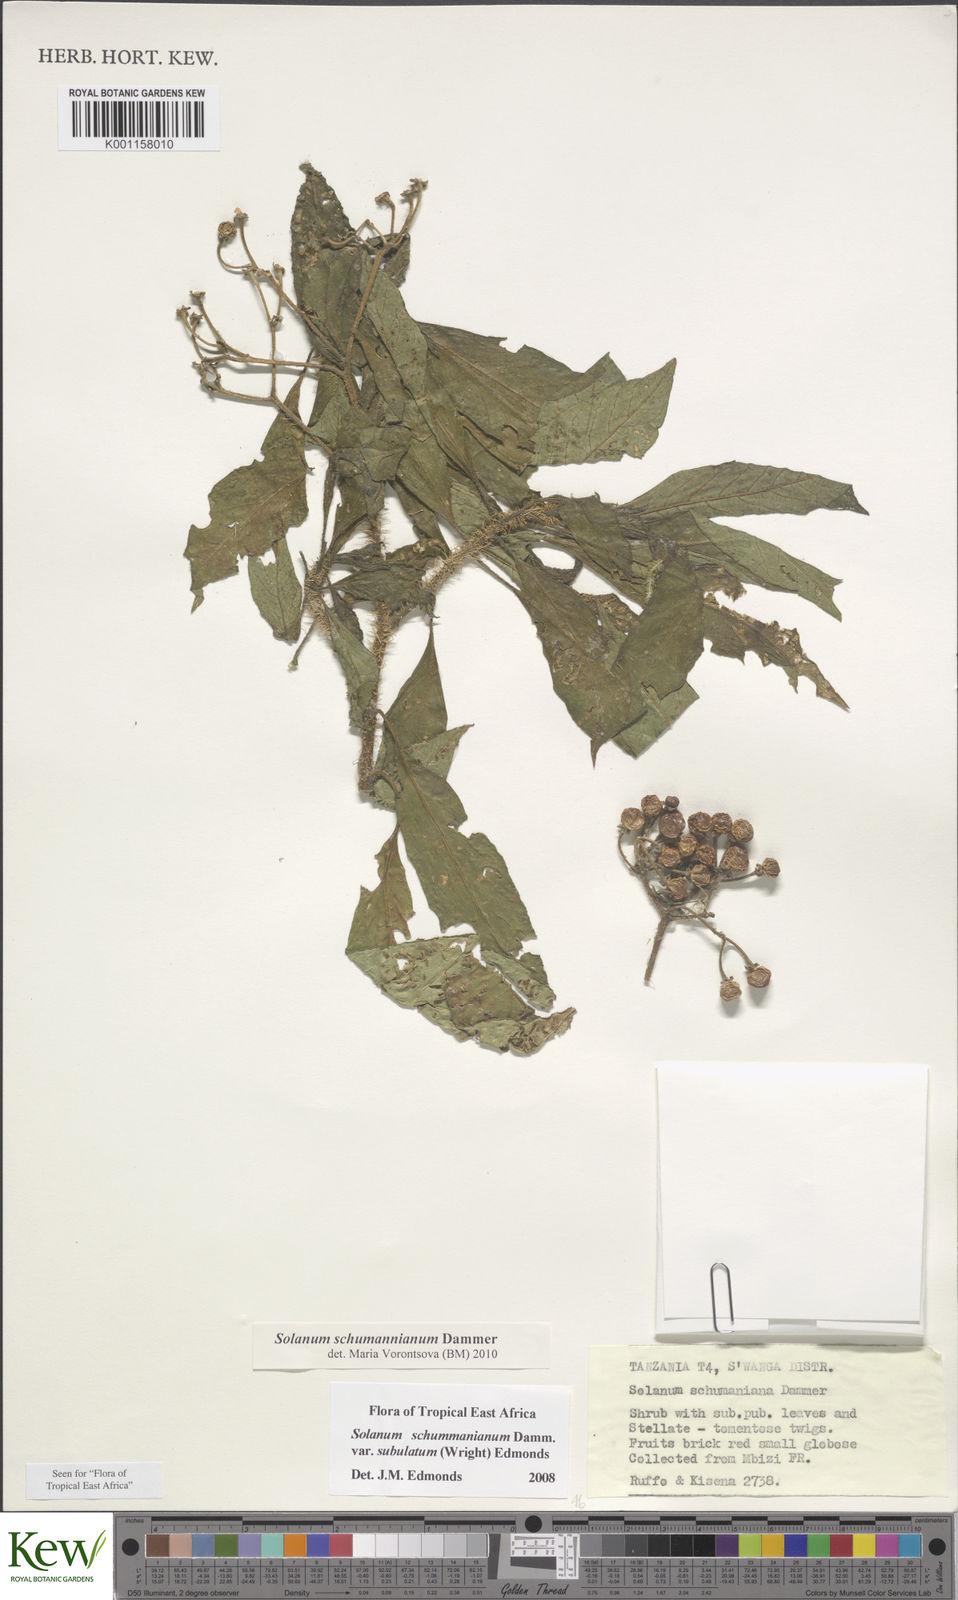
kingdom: Plantae
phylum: Tracheophyta
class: Magnoliopsida
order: Solanales
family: Solanaceae
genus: Solanum
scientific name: Solanum schumannianum
